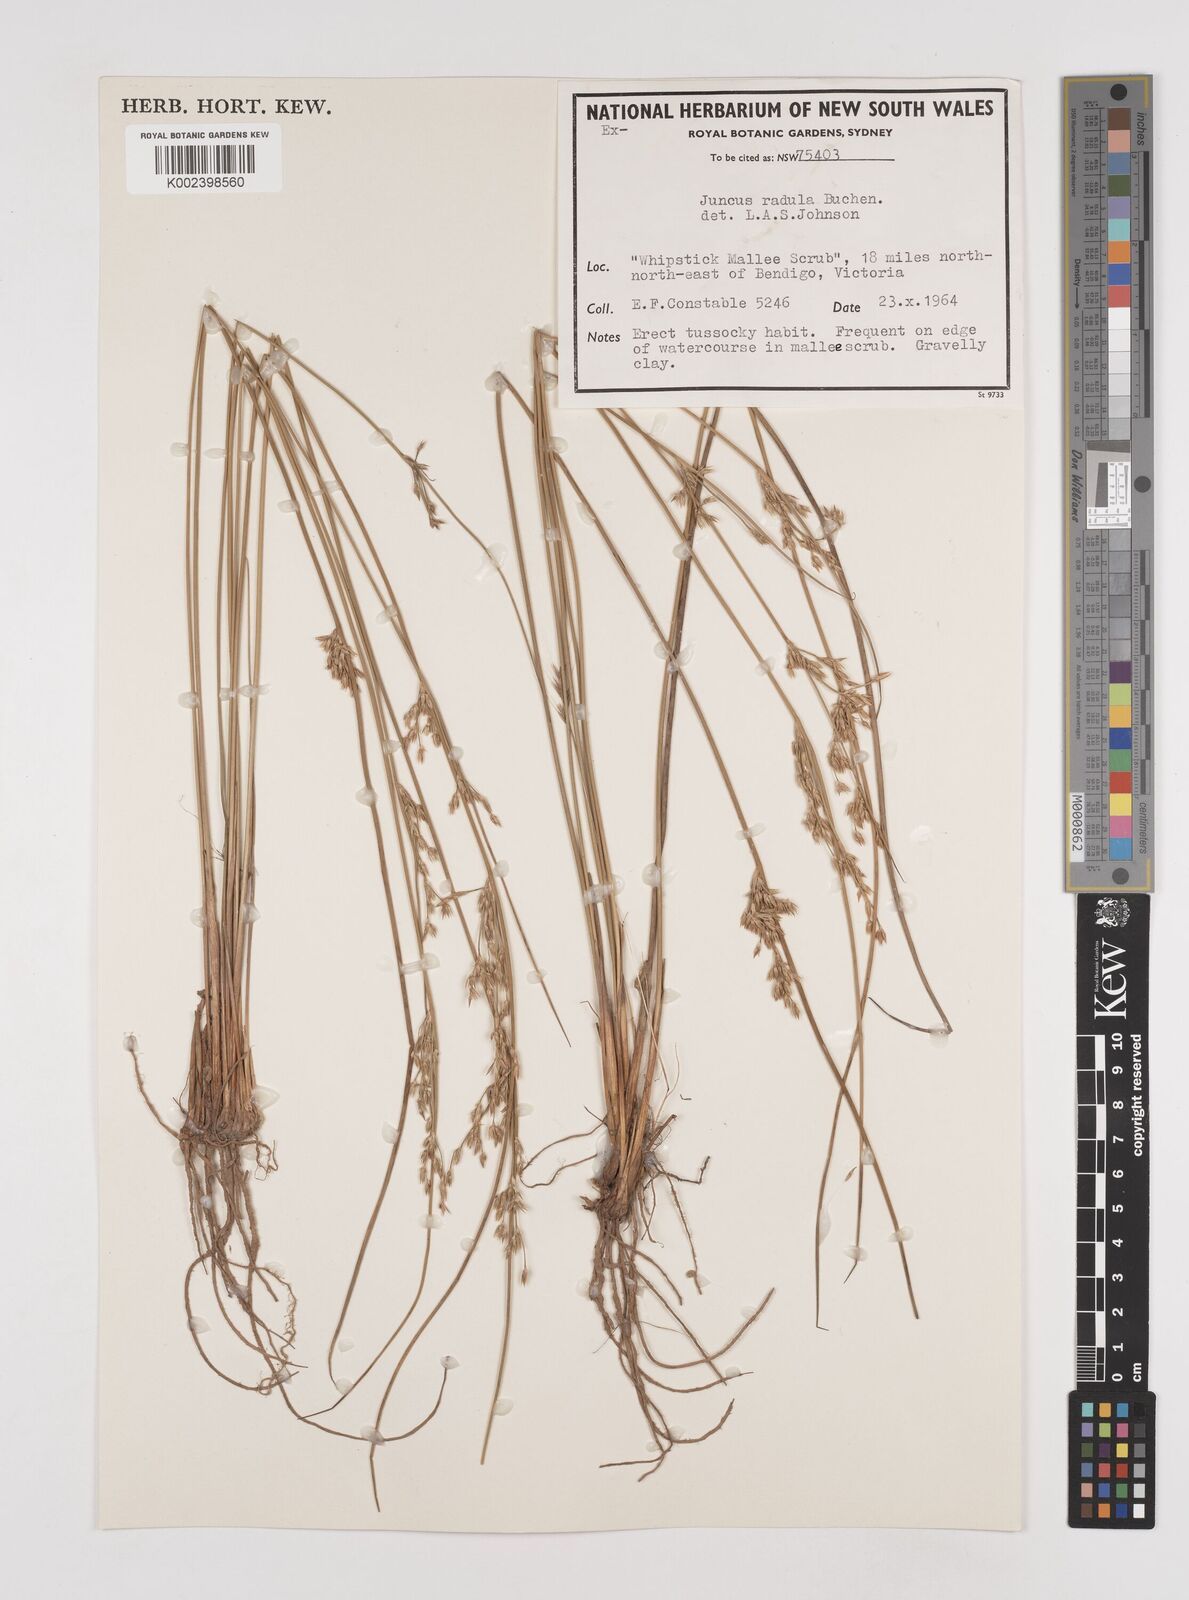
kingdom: Plantae
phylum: Tracheophyta
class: Liliopsida
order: Poales
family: Juncaceae
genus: Juncus
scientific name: Juncus radula
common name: Hoary rush
